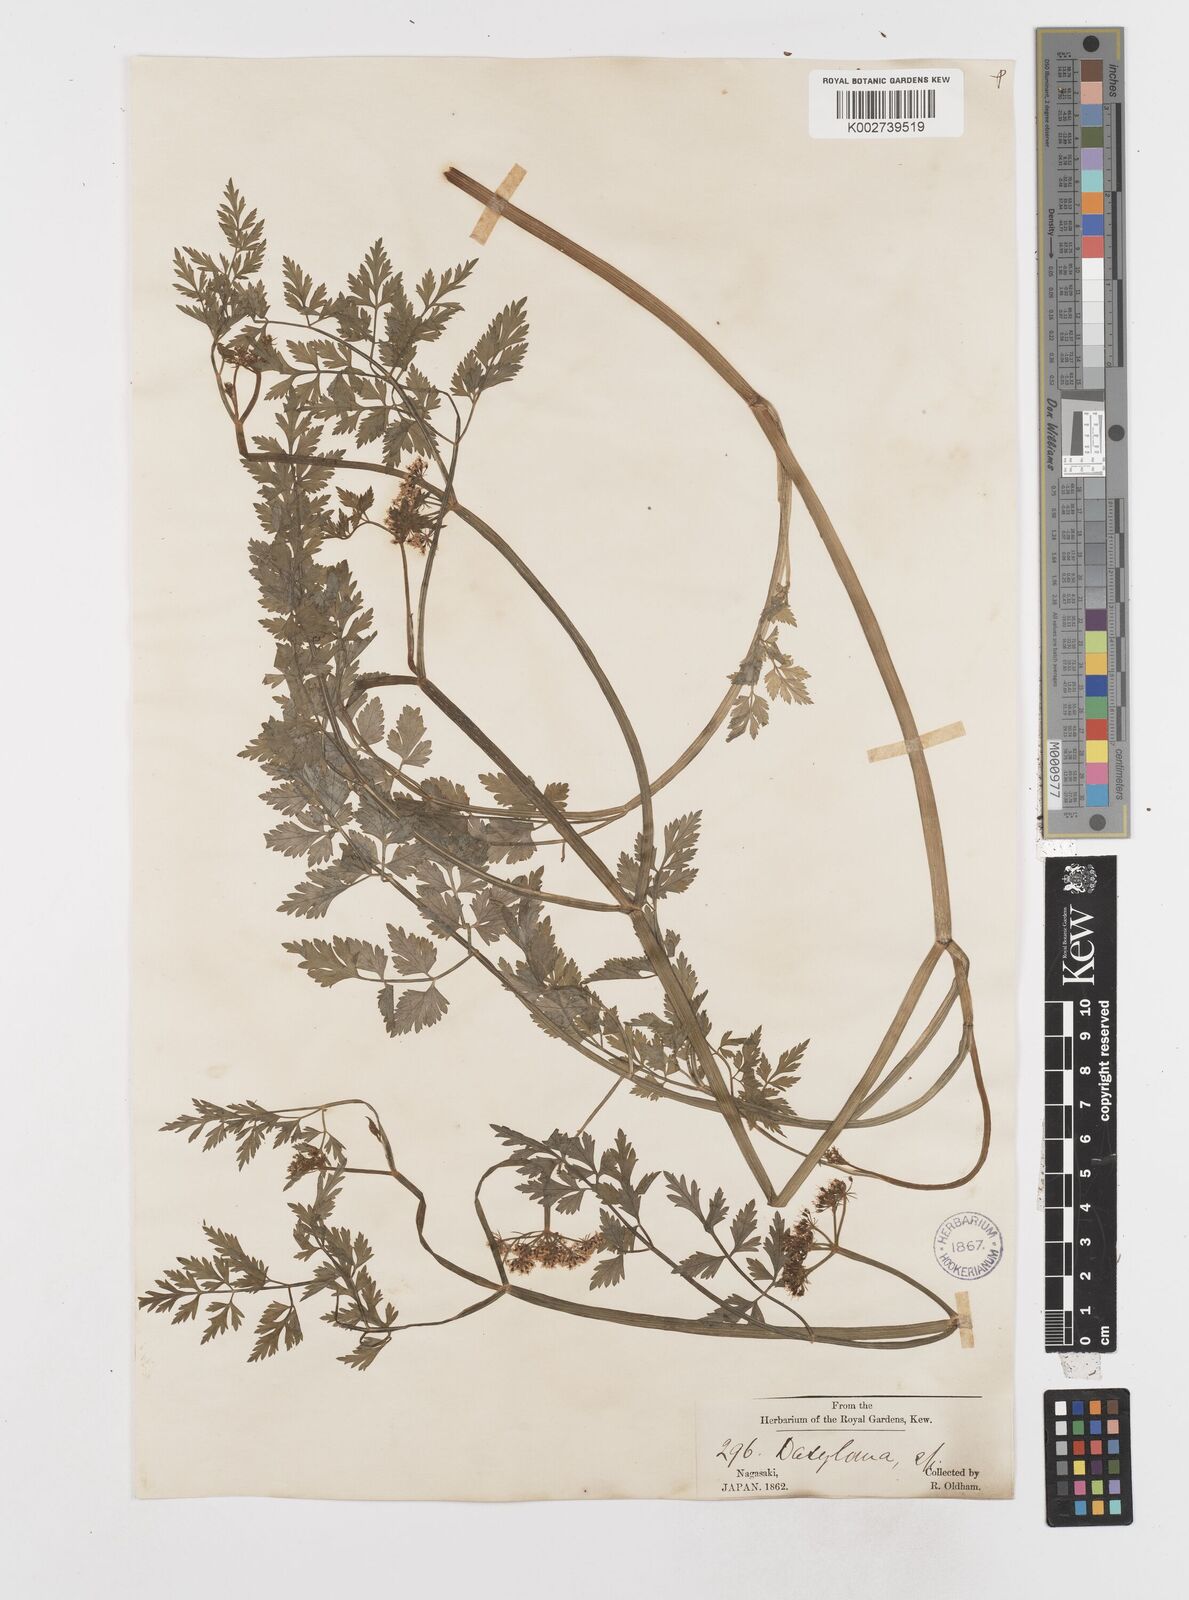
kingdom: Plantae
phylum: Tracheophyta
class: Magnoliopsida
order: Apiales
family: Apiaceae
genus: Oenanthe
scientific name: Oenanthe javanica
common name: Java water-dropwort
